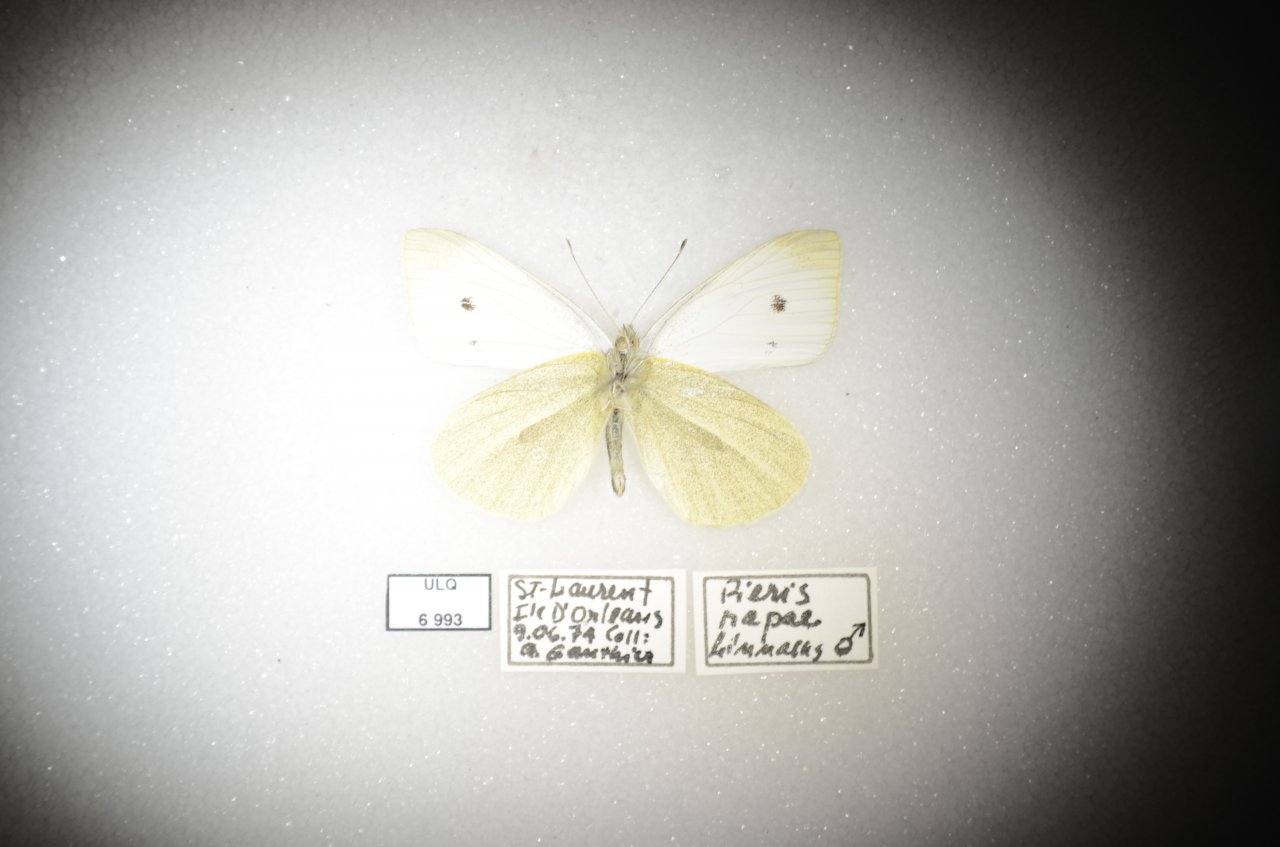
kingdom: Animalia
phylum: Arthropoda
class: Insecta
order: Lepidoptera
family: Pieridae
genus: Pieris
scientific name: Pieris rapae
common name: Cabbage White
